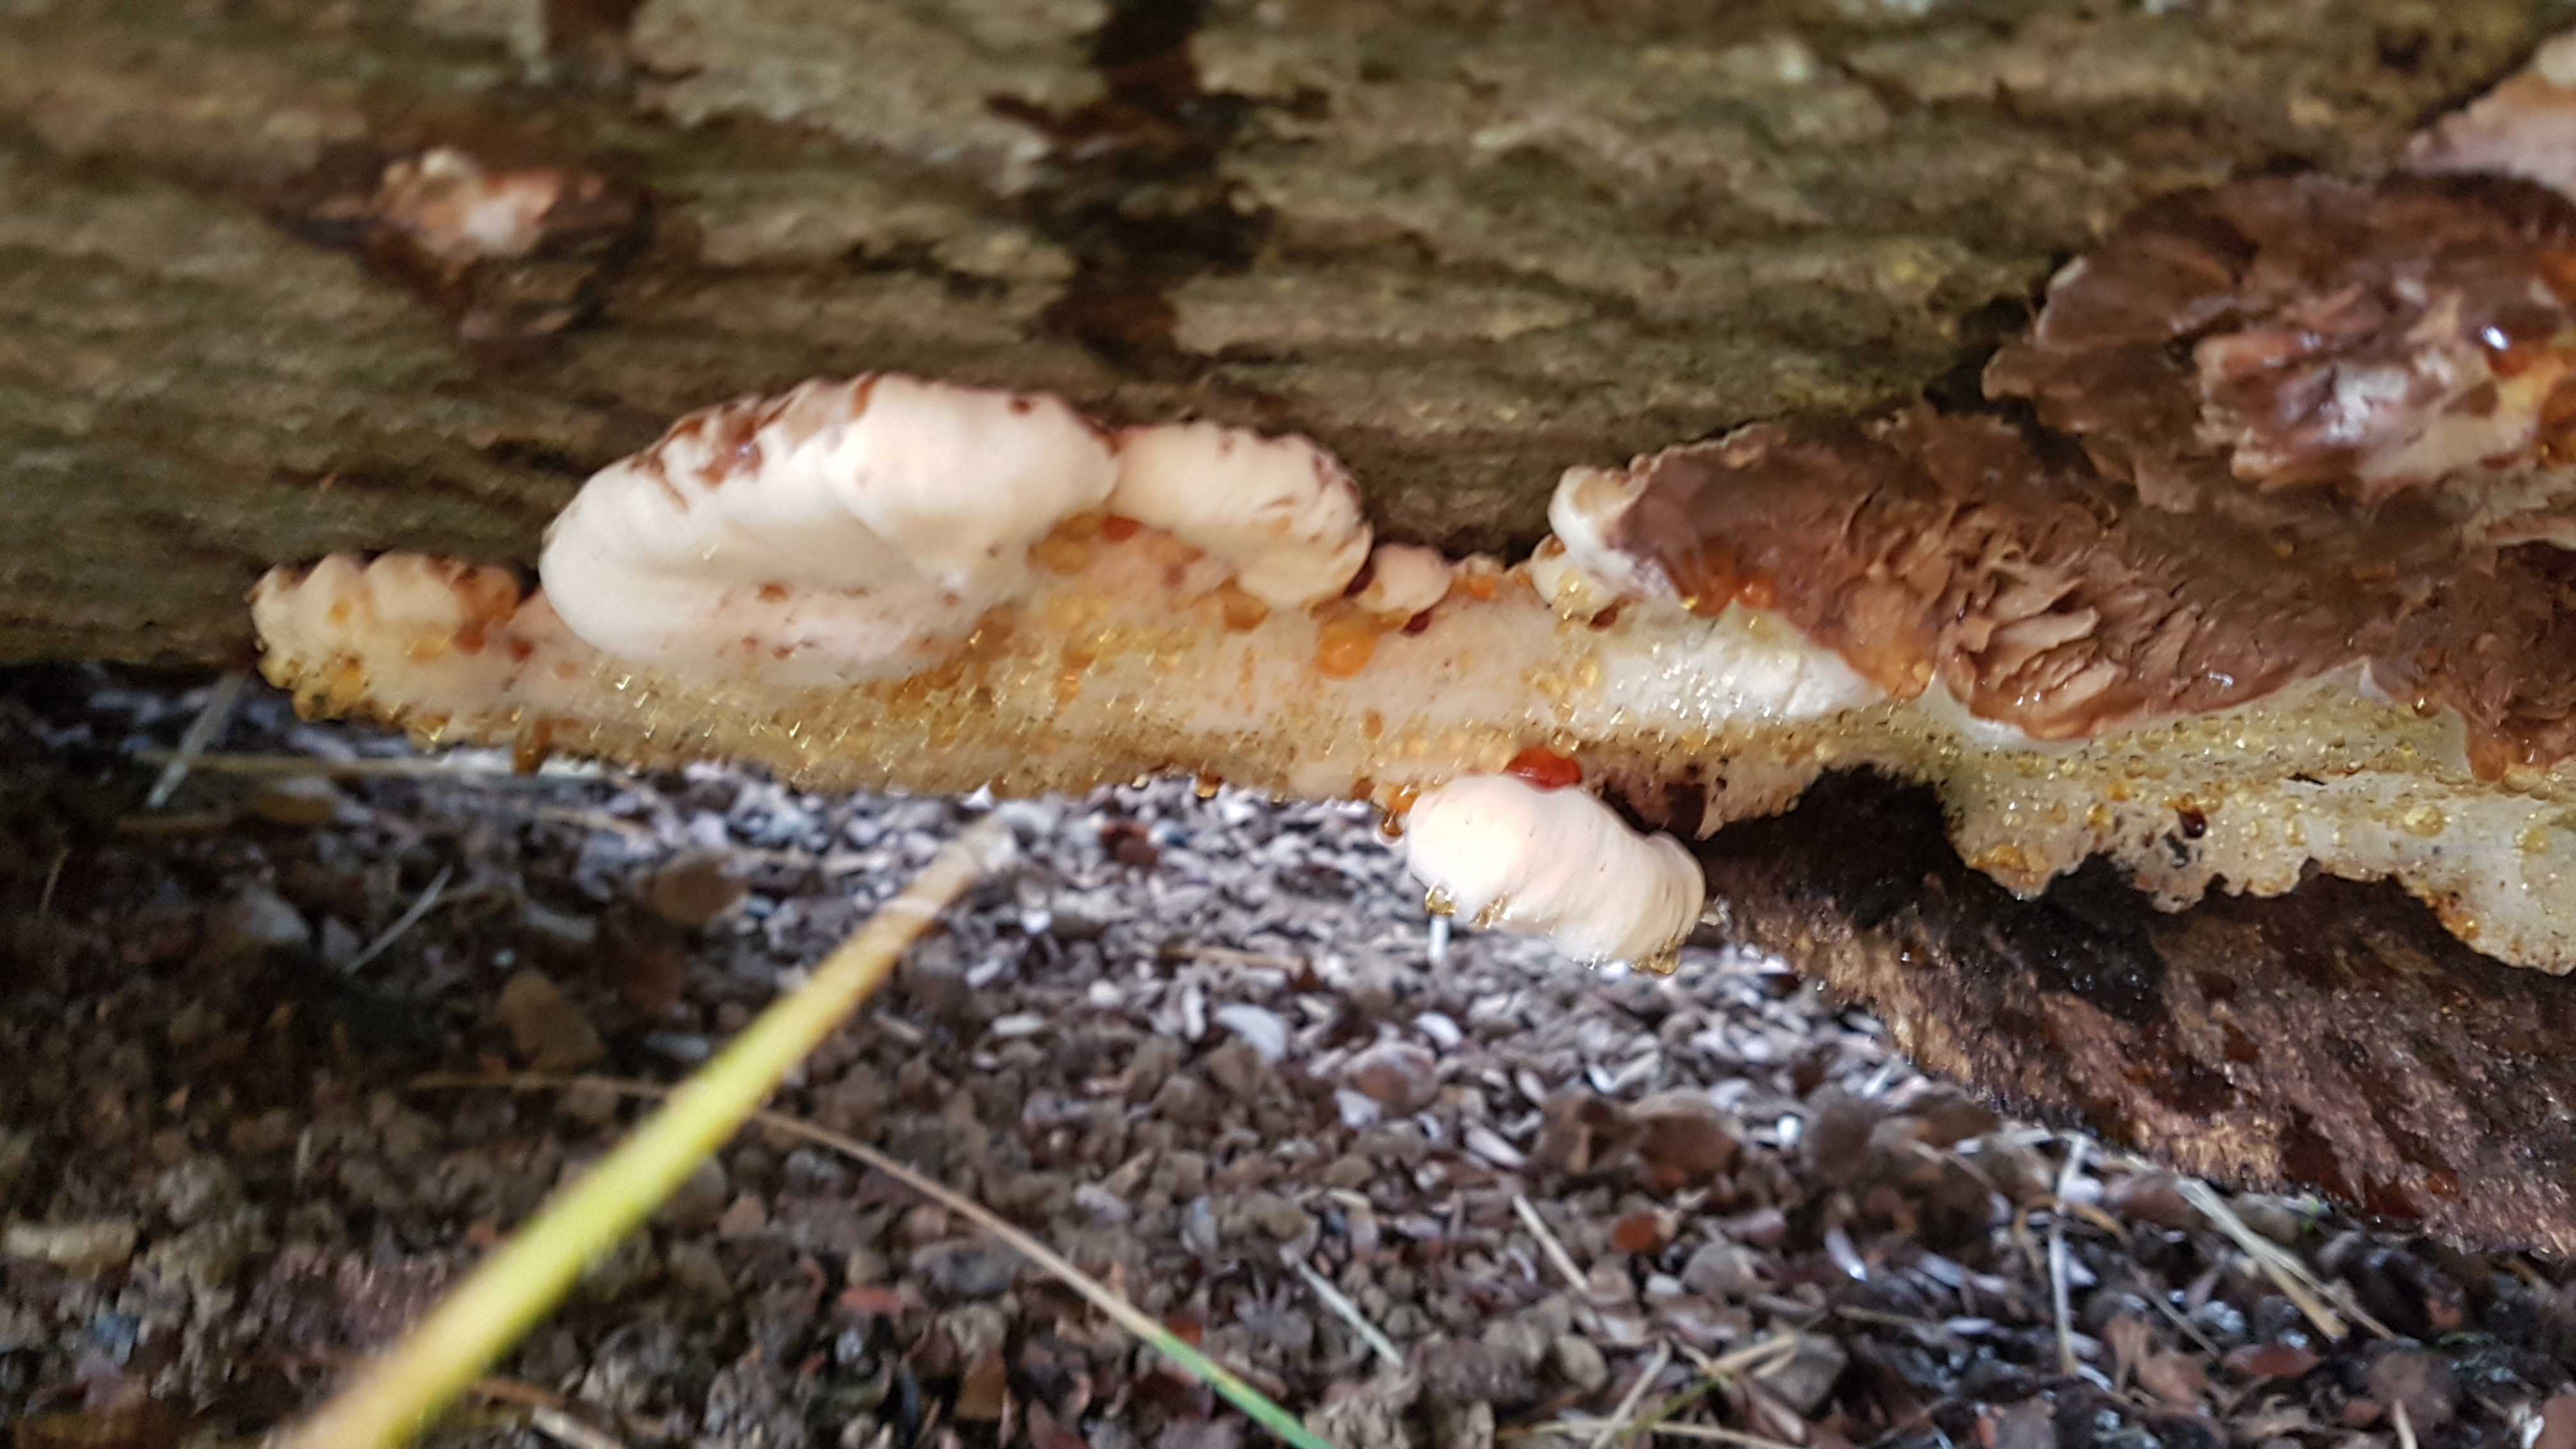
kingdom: Fungi
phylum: Basidiomycota
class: Agaricomycetes
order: Polyporales
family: Ischnodermataceae
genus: Ischnoderma
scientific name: Ischnoderma resinosum
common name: løv-tjæreporesvamp
